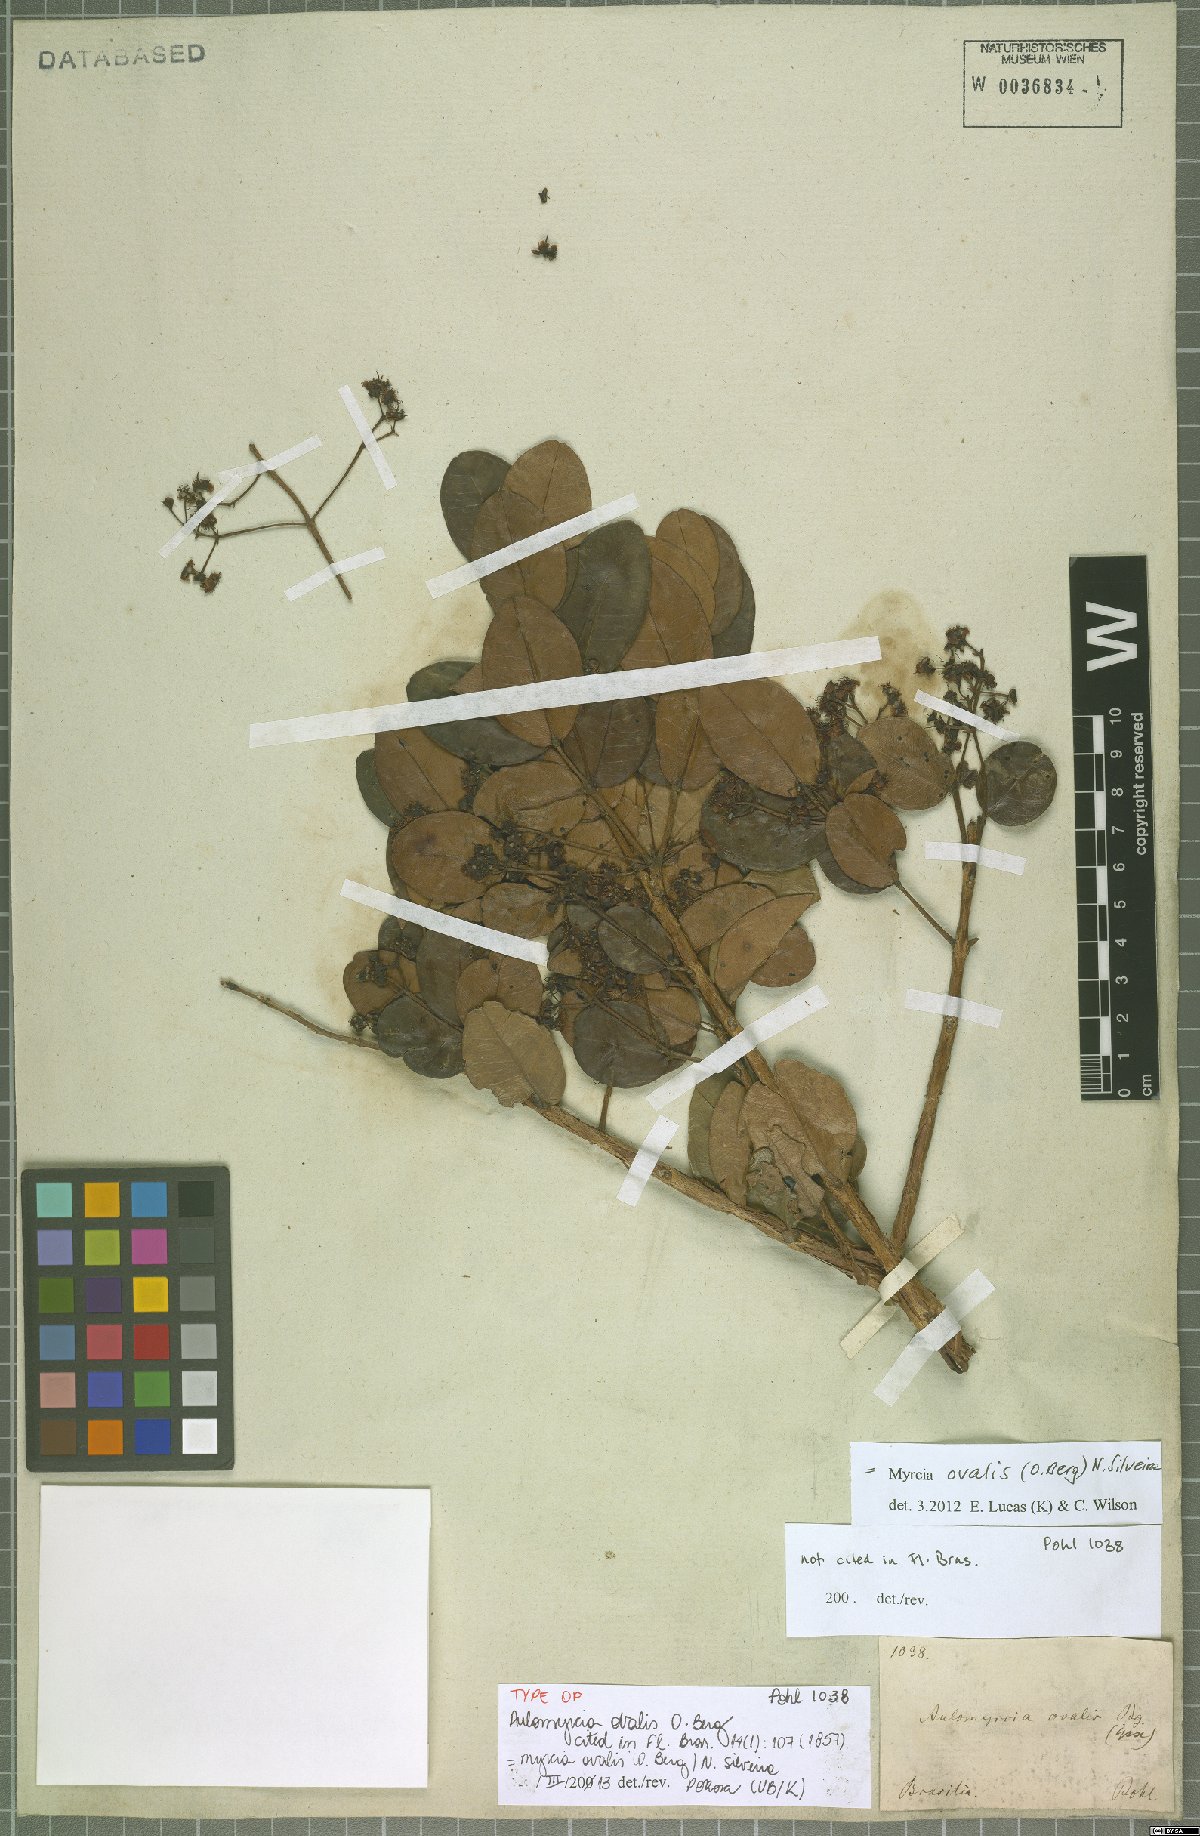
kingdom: Plantae
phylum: Tracheophyta
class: Magnoliopsida
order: Myrtales
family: Myrtaceae
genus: Myrcia
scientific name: Myrcia ovalis
